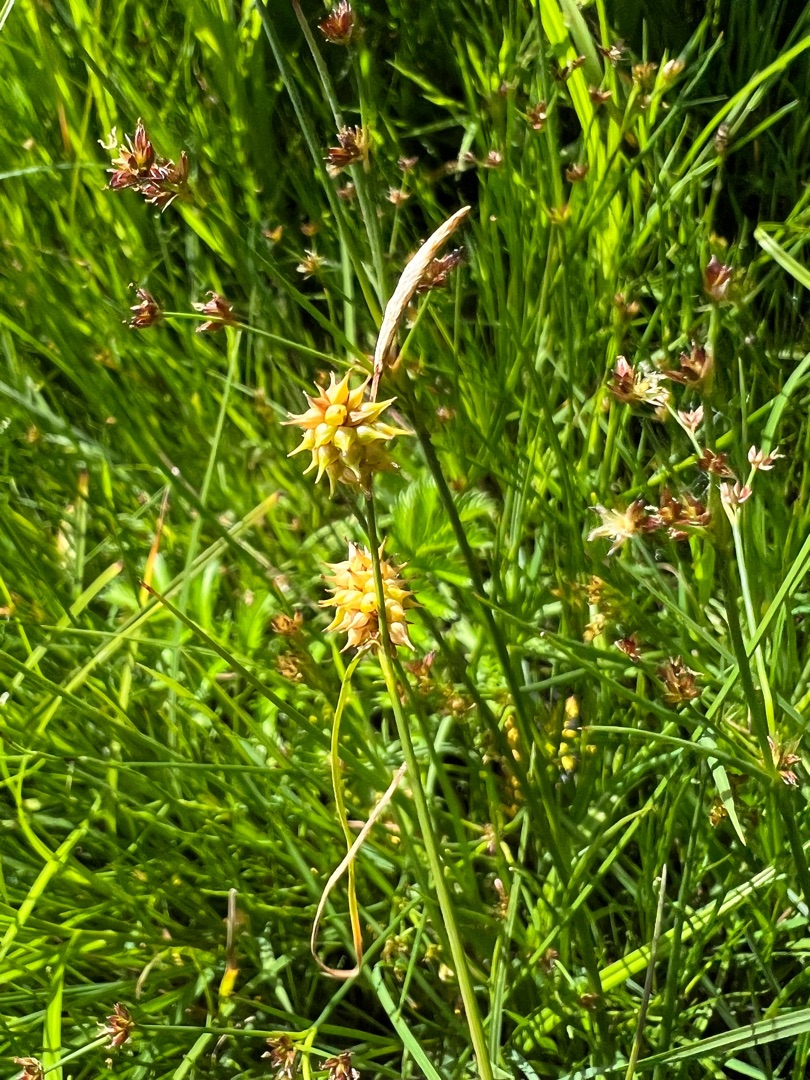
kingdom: Plantae
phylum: Tracheophyta
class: Liliopsida
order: Poales
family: Cyperaceae
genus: Carex
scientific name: Carex lepidocarpa
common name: Krognæb-star
